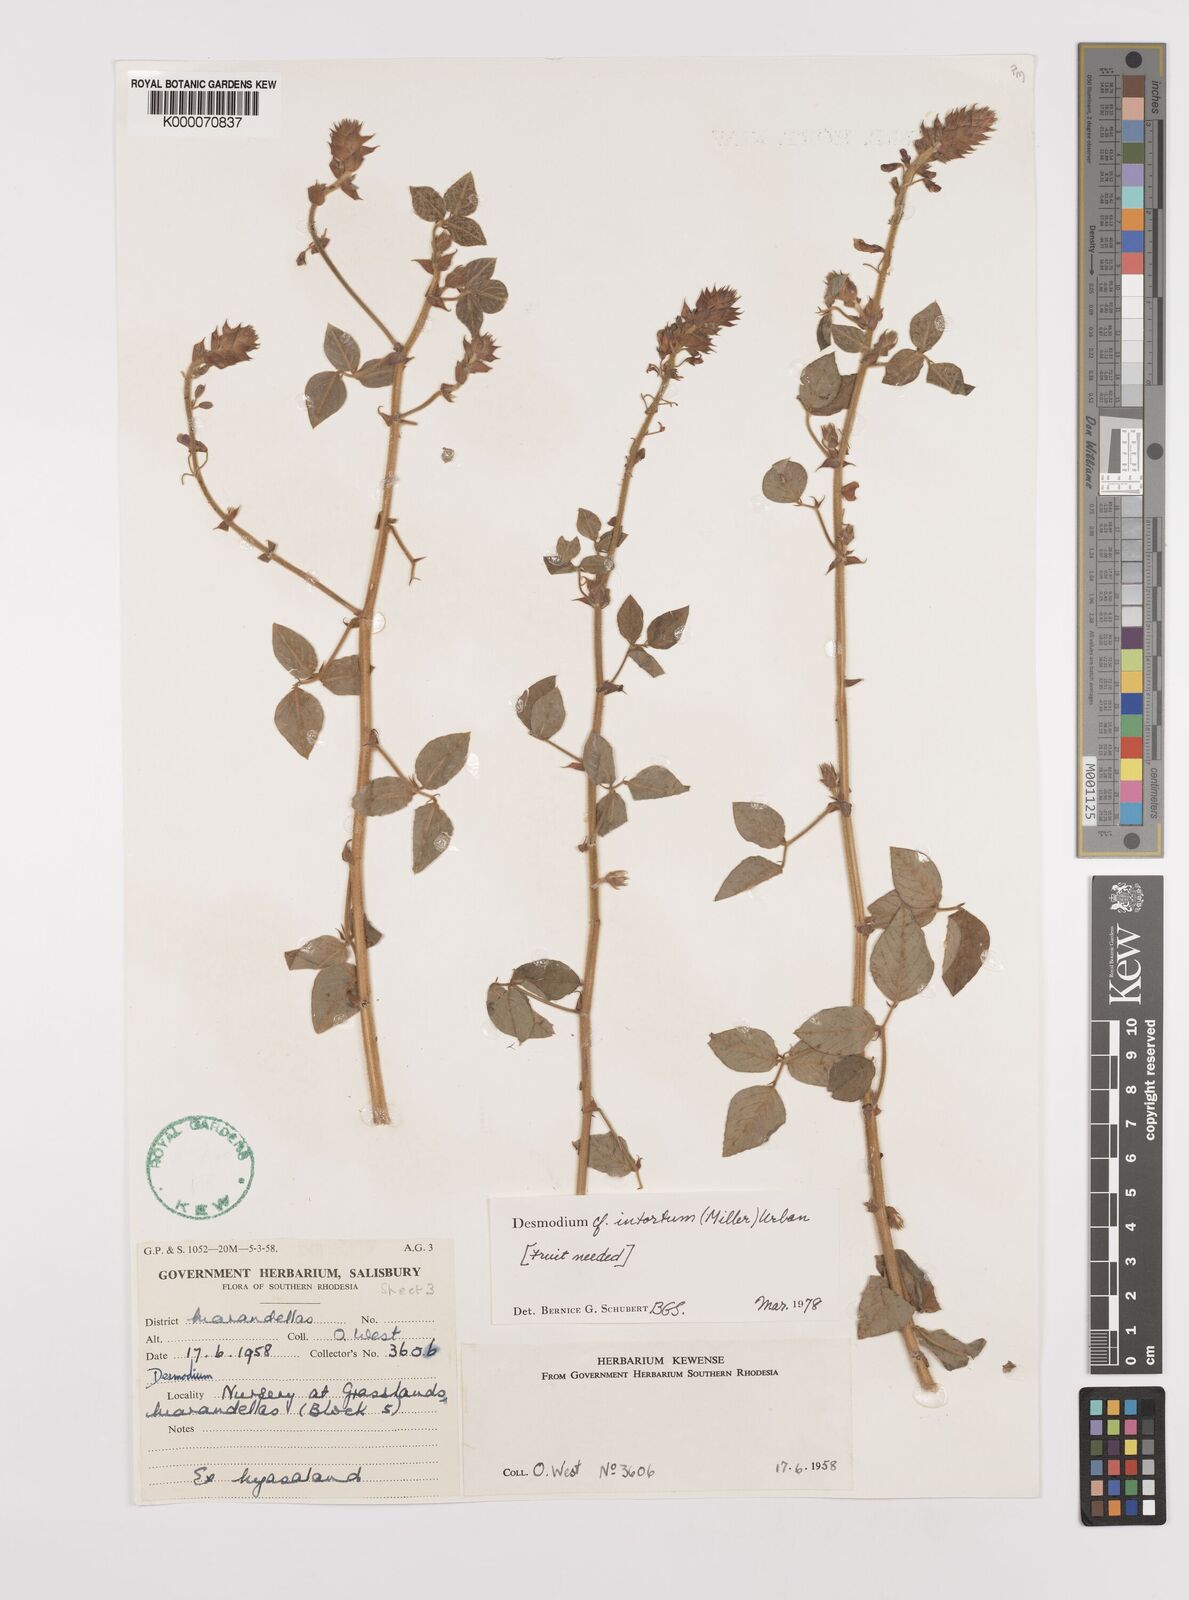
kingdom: Plantae
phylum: Tracheophyta
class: Magnoliopsida
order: Fabales
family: Fabaceae
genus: Desmodium
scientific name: Desmodium intortum
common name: Greenleaf ticktrefoil
